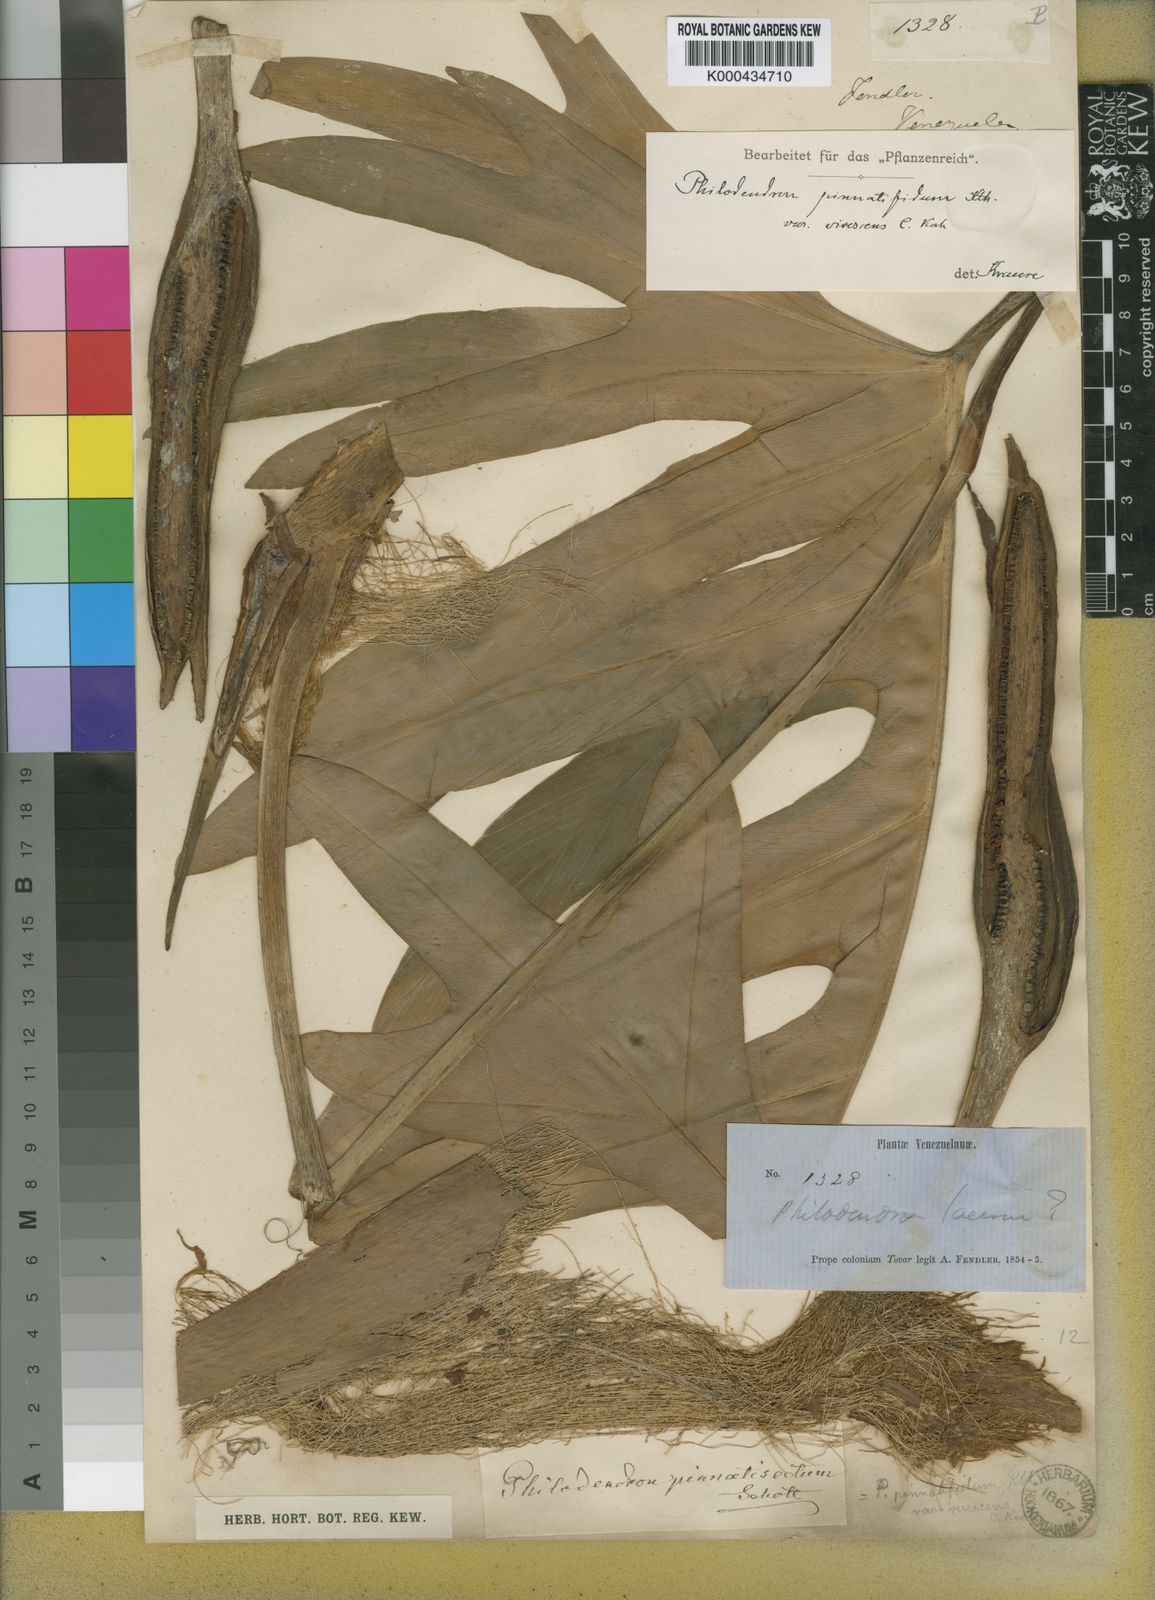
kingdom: Plantae
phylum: Tracheophyta
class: Liliopsida
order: Alismatales
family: Araceae
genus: Philodendron
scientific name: Philodendron pinnatifidum
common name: Comb-leaf philodendron
